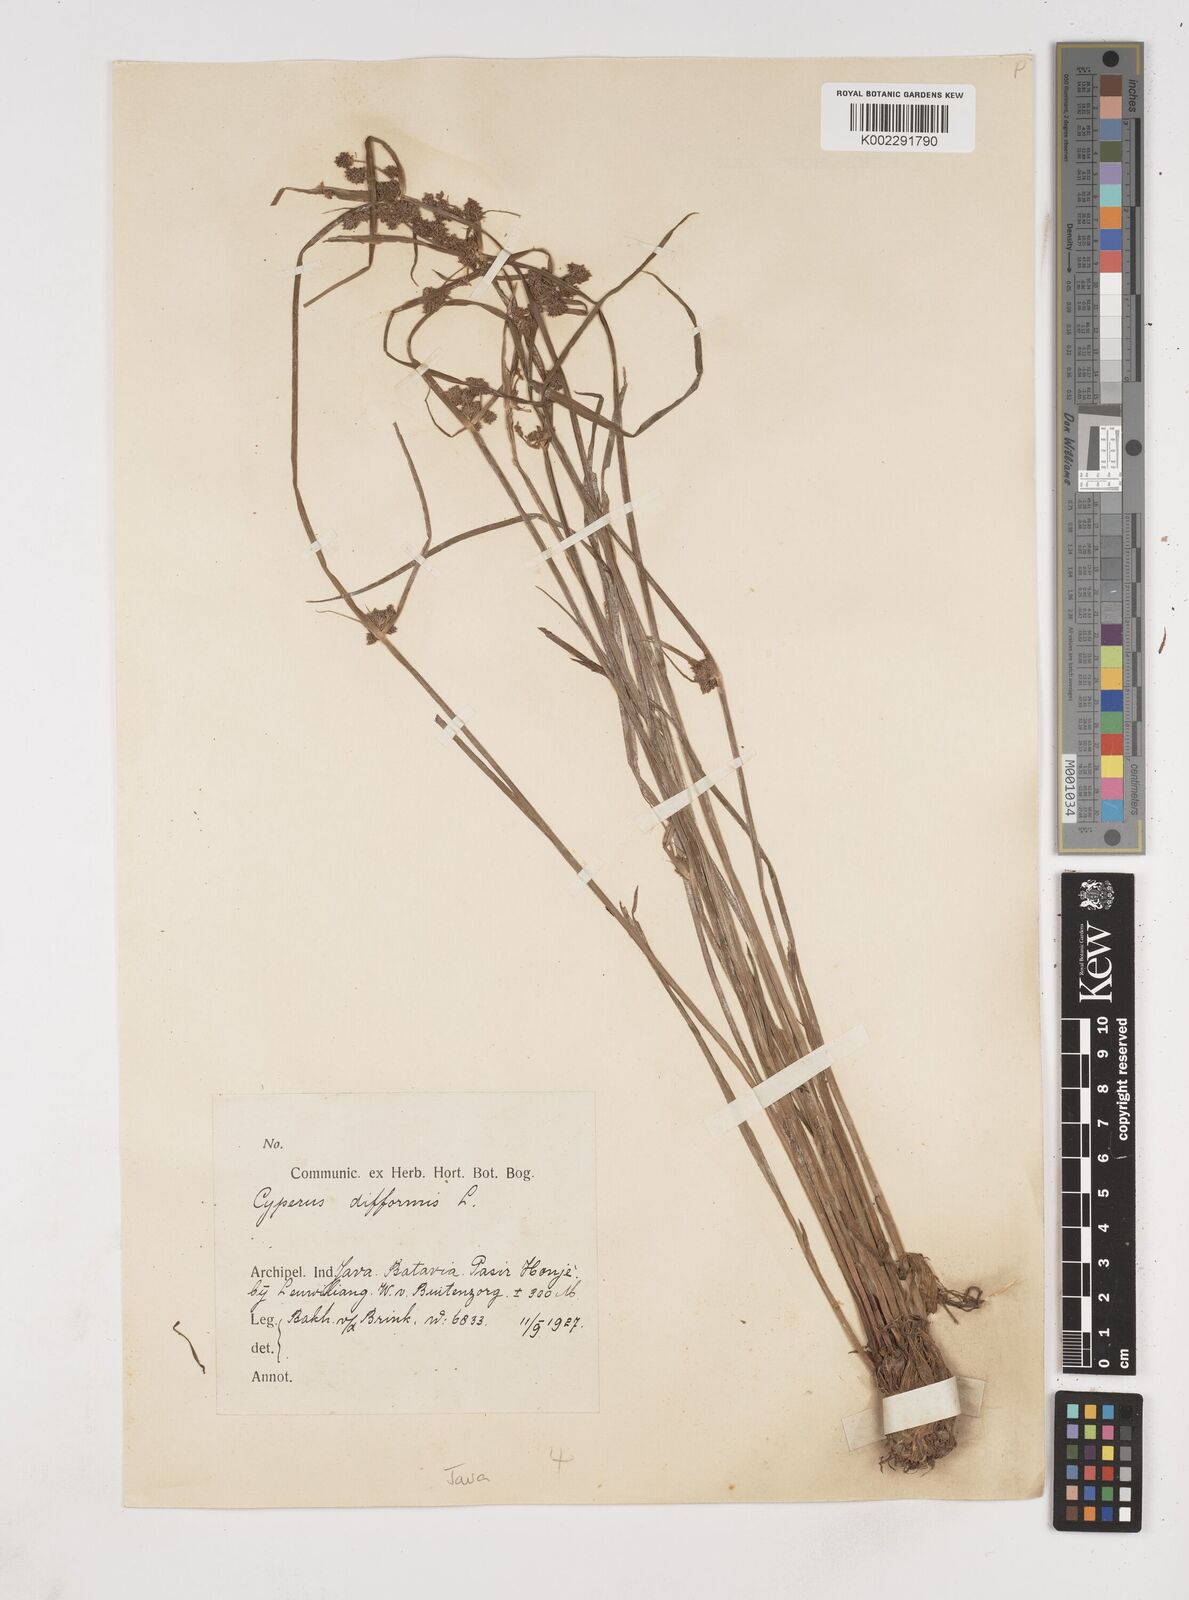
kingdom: Plantae
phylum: Tracheophyta
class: Liliopsida
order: Poales
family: Cyperaceae
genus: Cyperus
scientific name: Cyperus difformis
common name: Variable flatsedge
